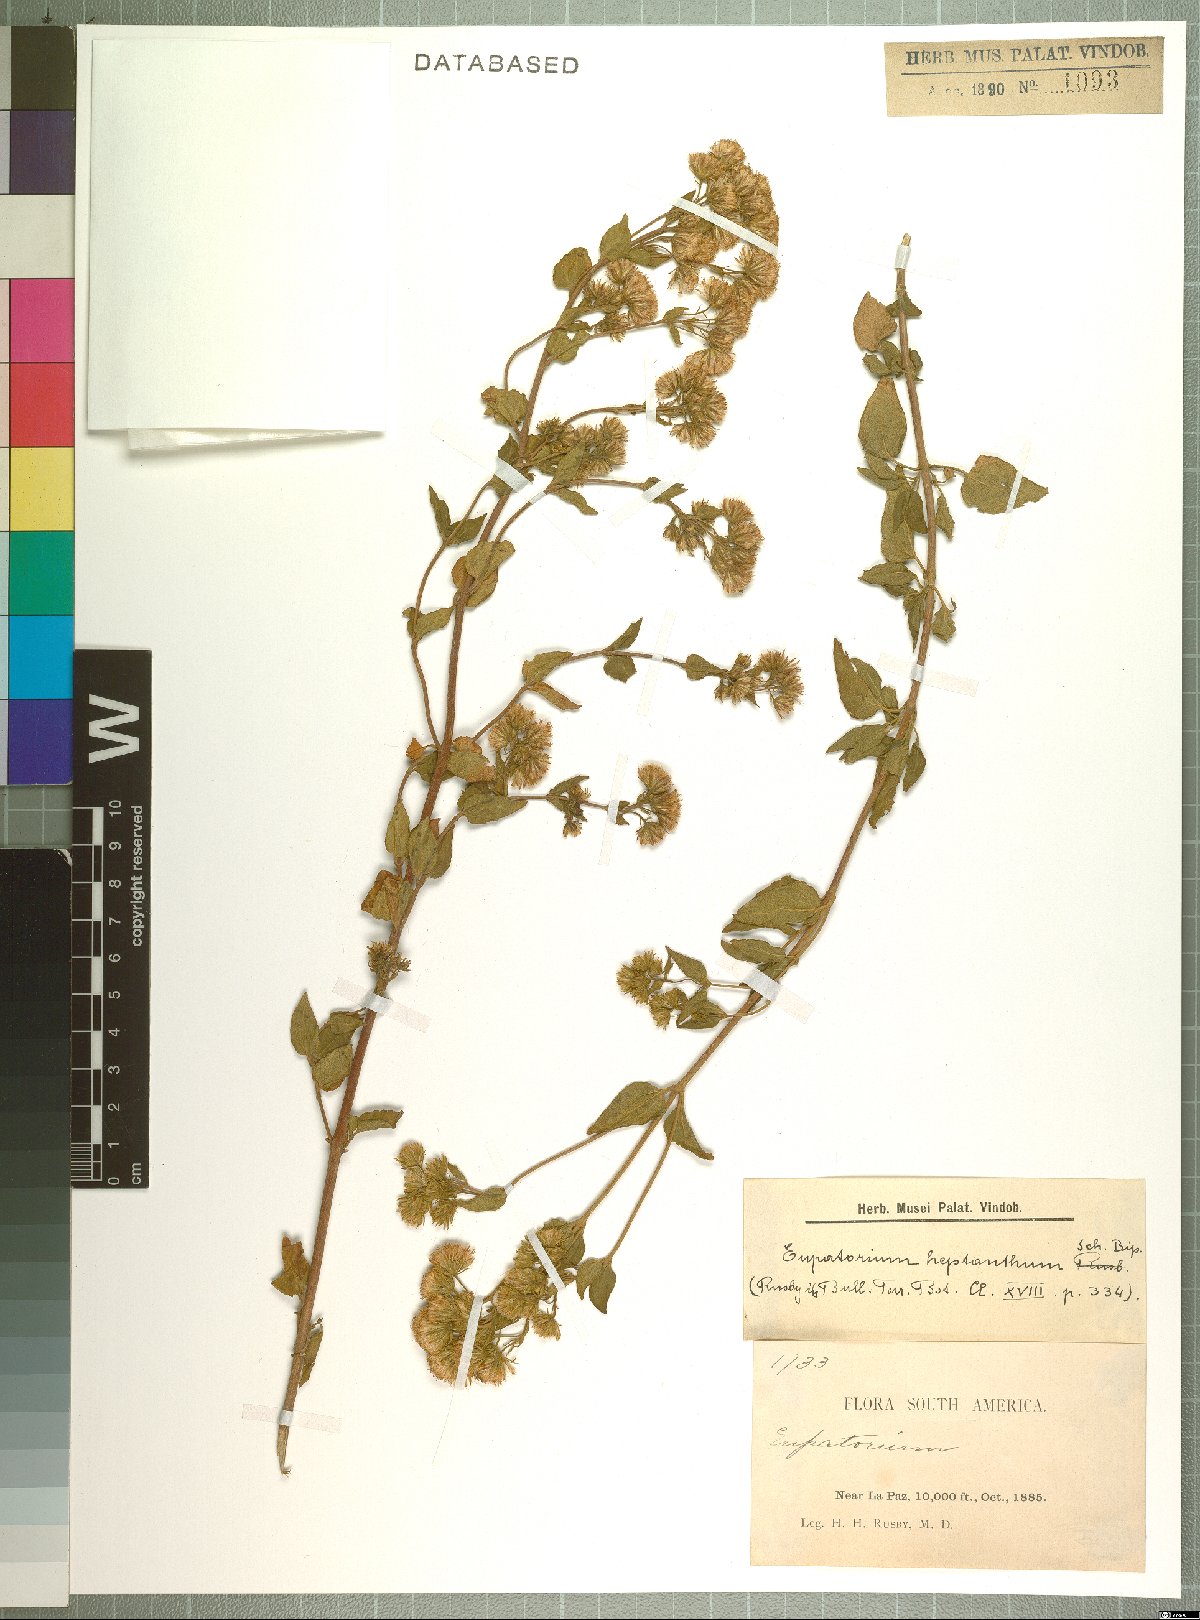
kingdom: Plantae
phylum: Tracheophyta
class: Magnoliopsida
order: Asterales
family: Asteraceae
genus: Ophryosporus
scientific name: Ophryosporus heptanthus
